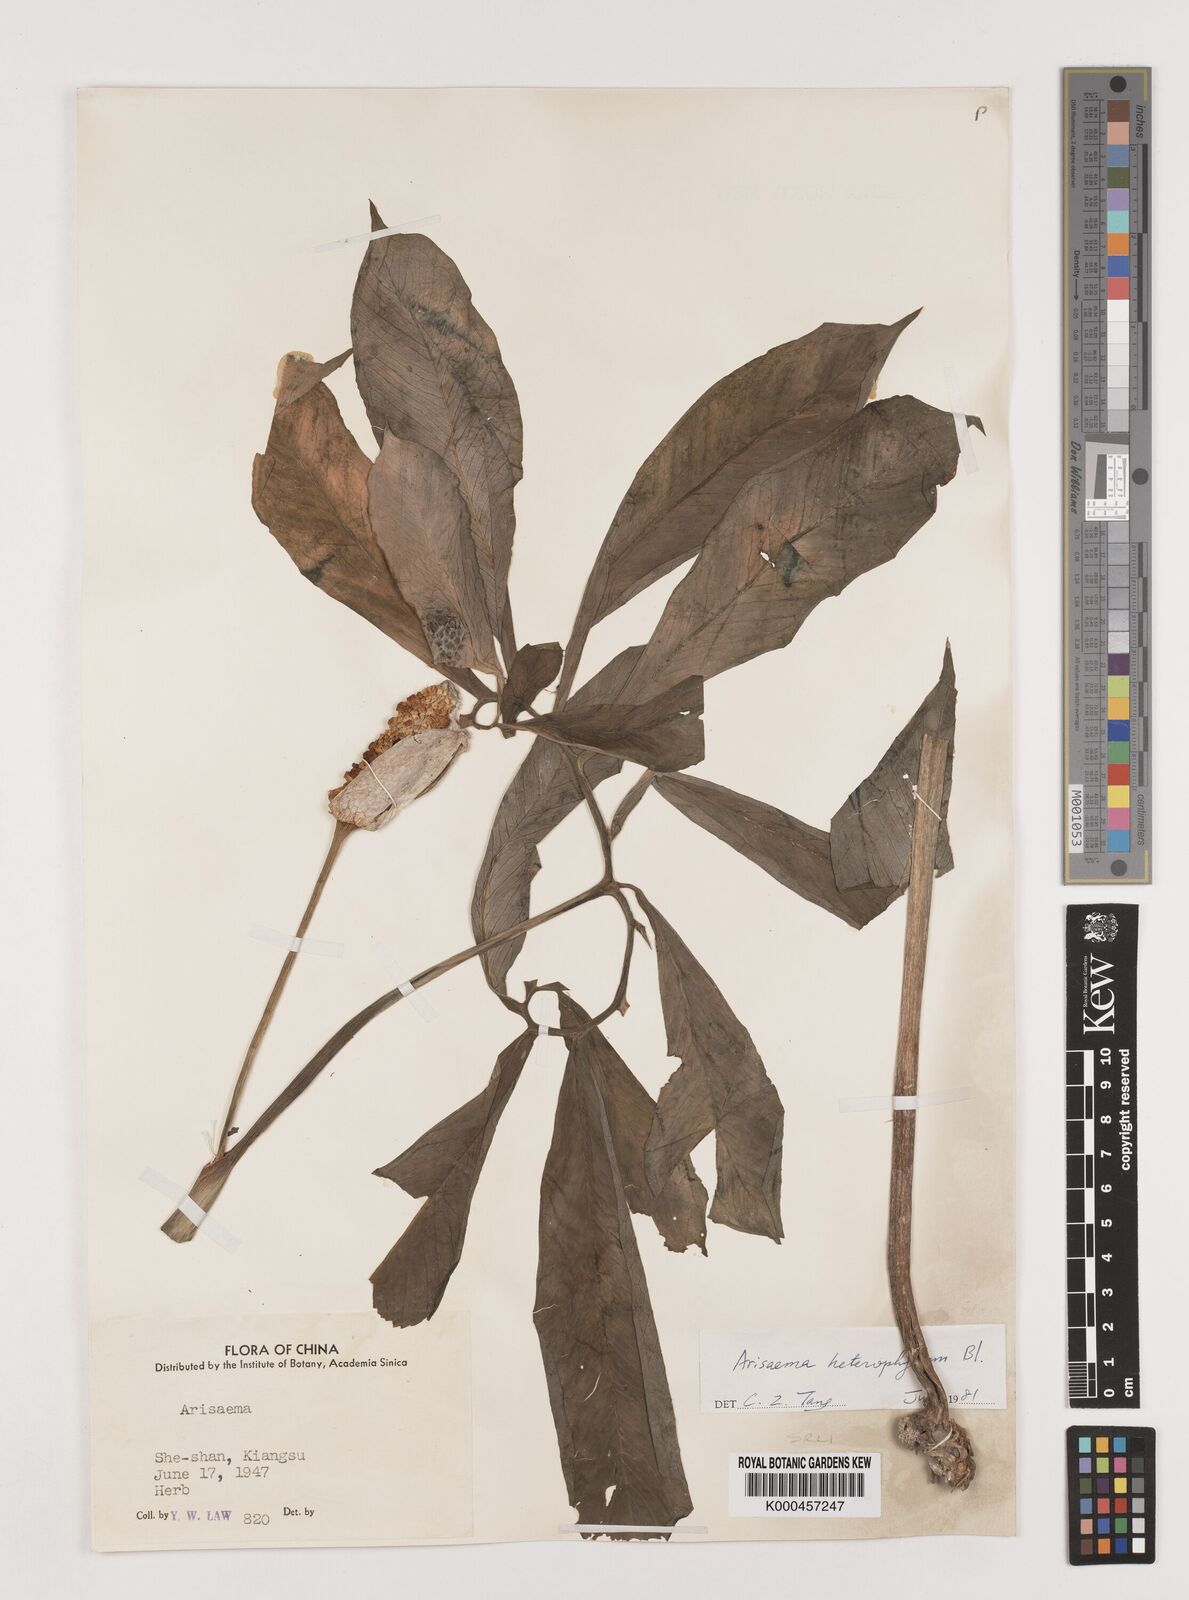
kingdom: Plantae
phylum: Tracheophyta
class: Liliopsida
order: Alismatales
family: Araceae
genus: Arisaema
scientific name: Arisaema heterophyllum
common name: Dancing crane cobra lily
